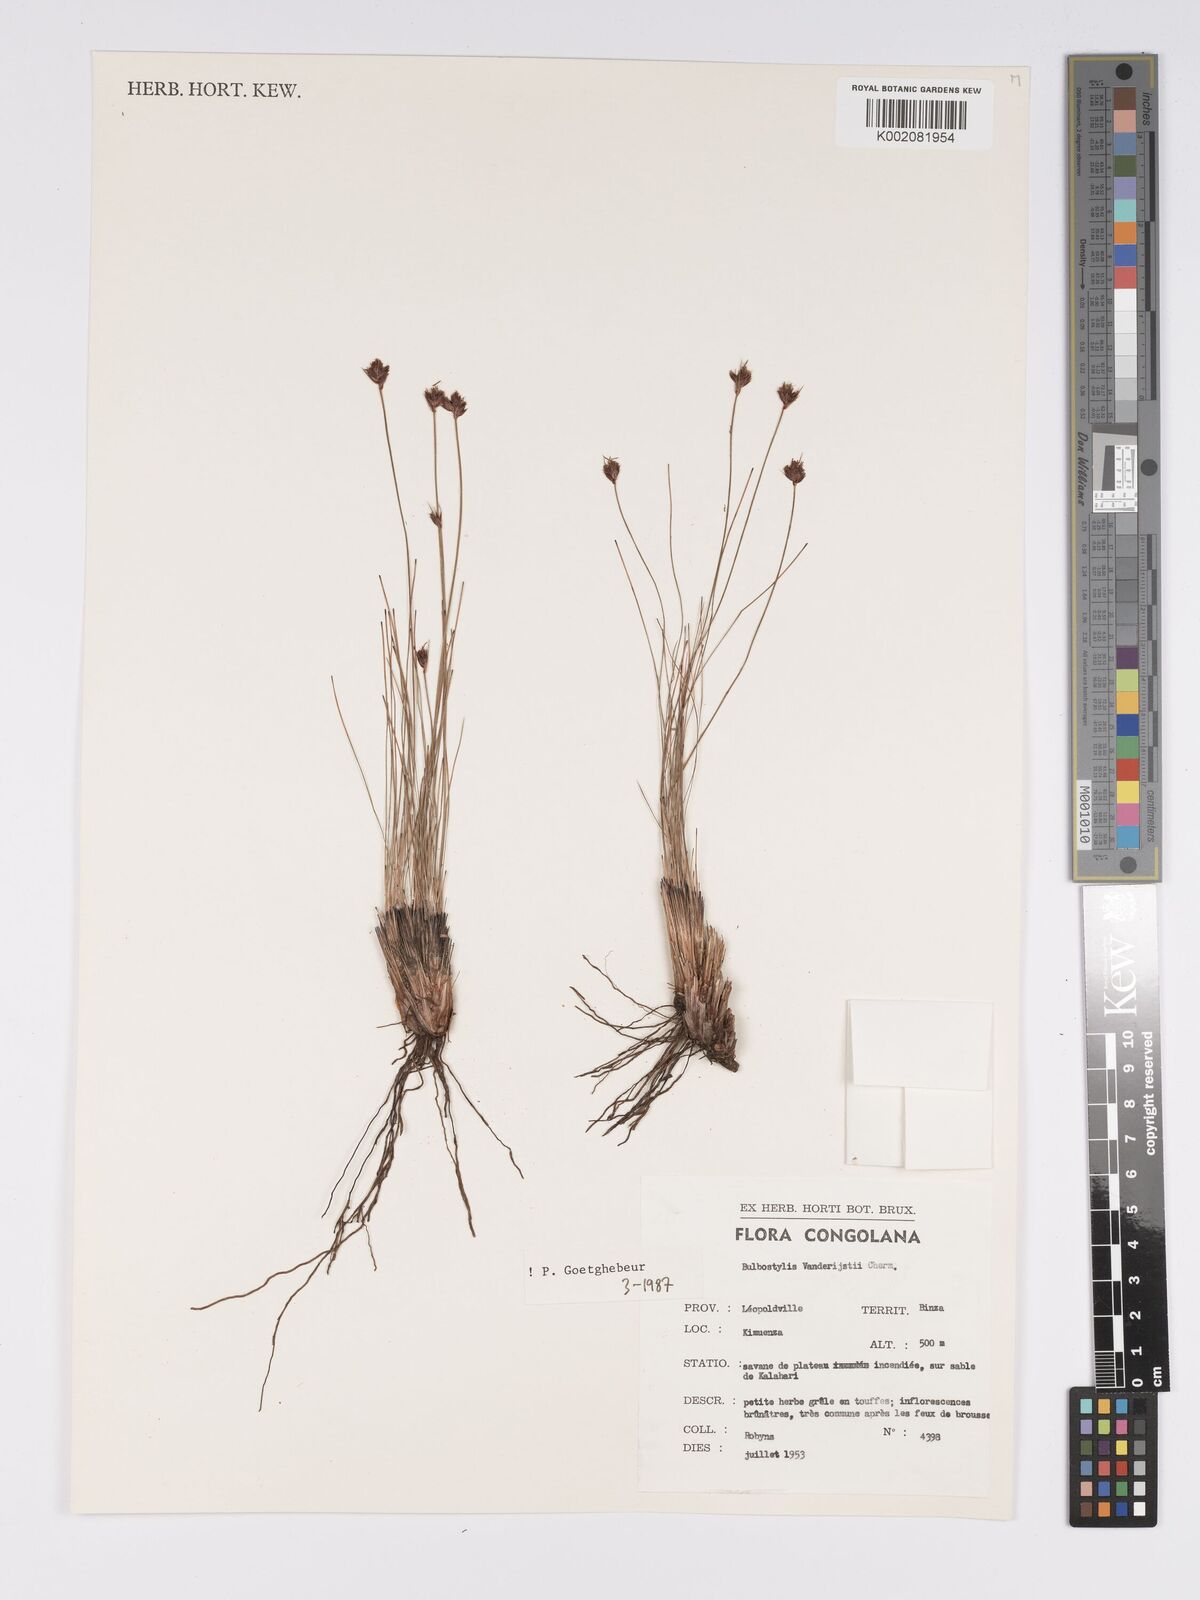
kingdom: Plantae
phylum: Tracheophyta
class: Liliopsida
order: Poales
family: Cyperaceae
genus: Bulbostylis
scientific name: Bulbostylis vanderystii
